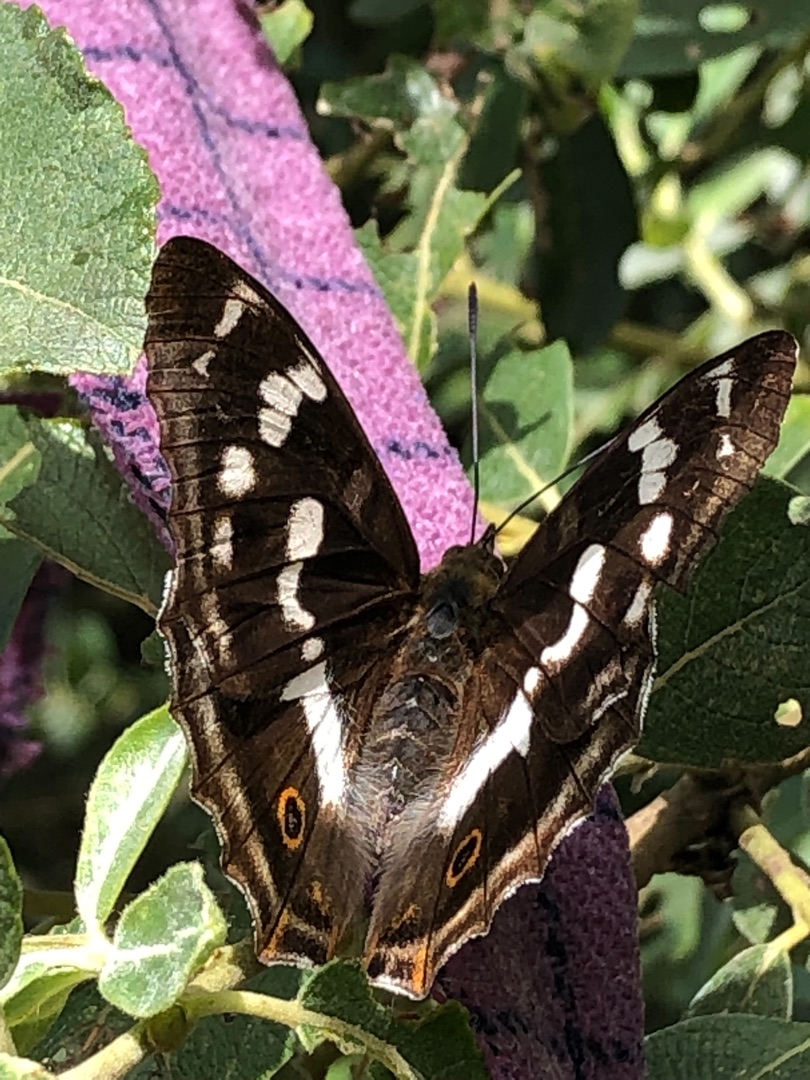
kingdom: Animalia
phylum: Arthropoda
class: Insecta
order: Lepidoptera
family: Nymphalidae
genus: Apatura
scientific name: Apatura iris
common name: Iris
